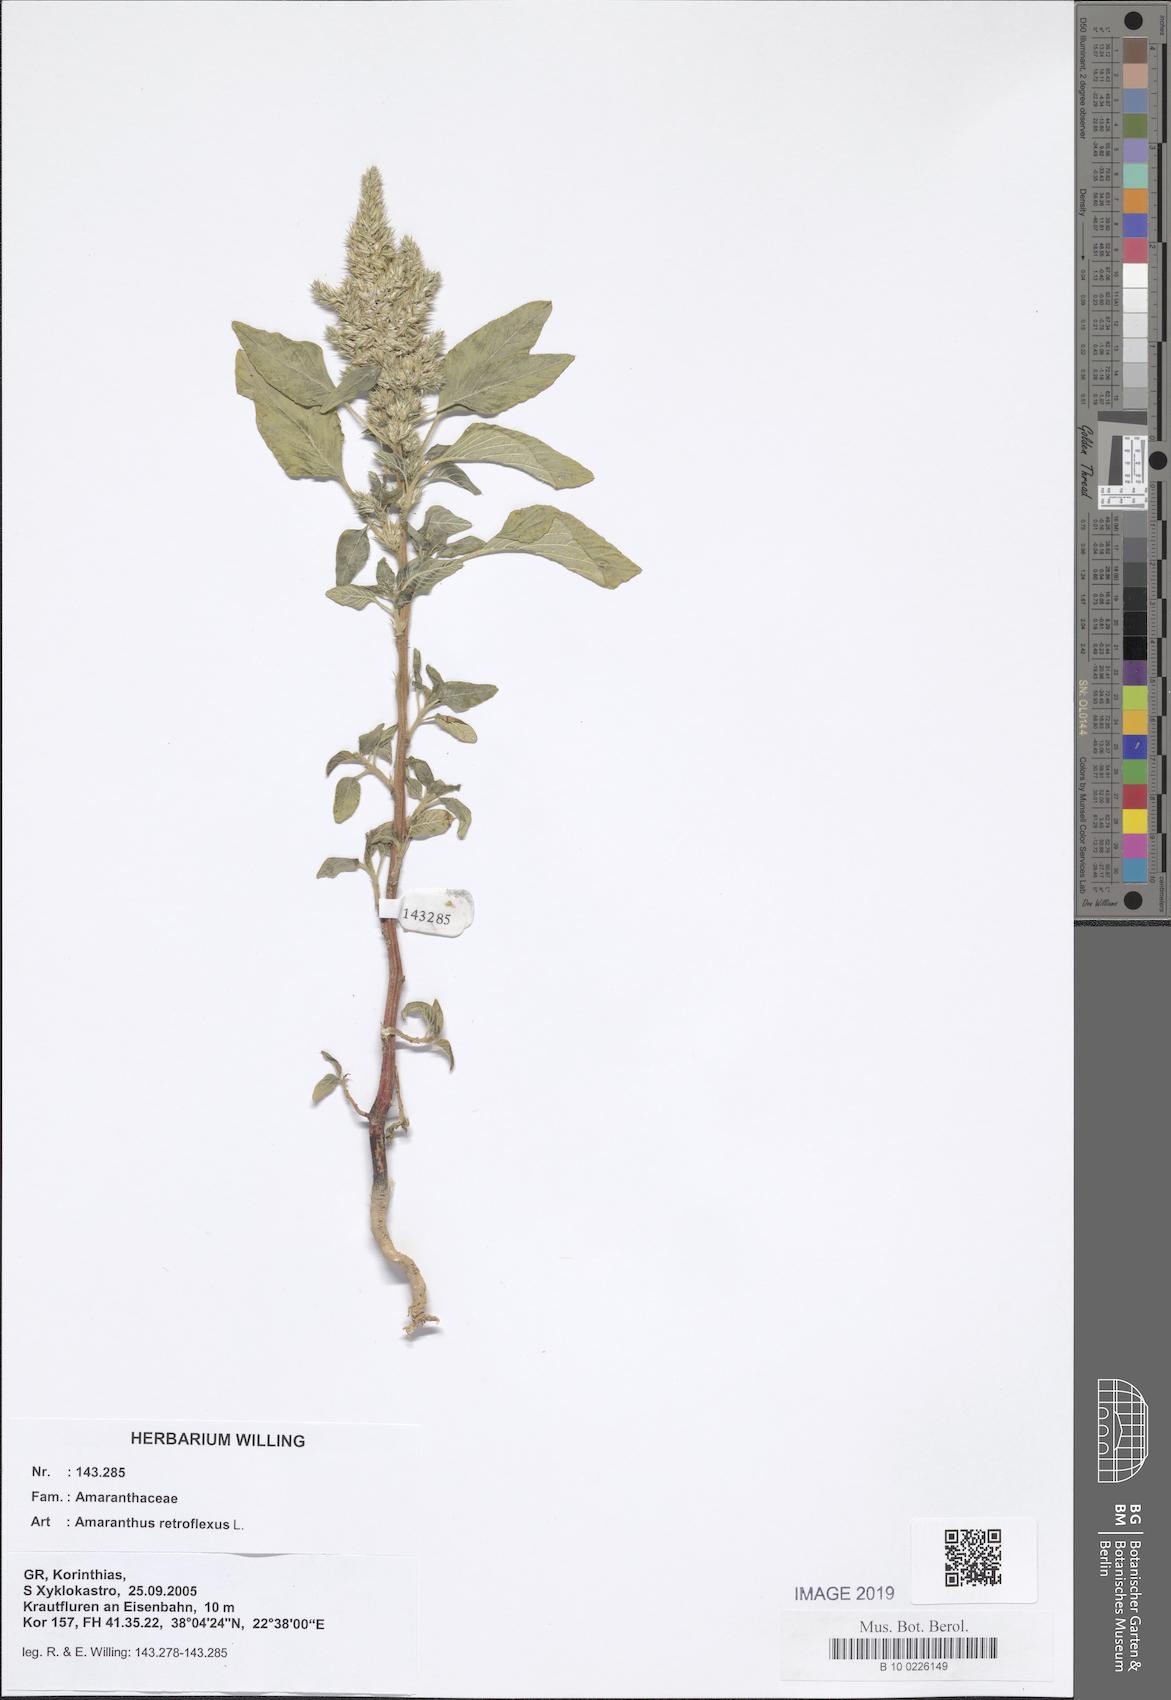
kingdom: Plantae
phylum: Tracheophyta
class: Magnoliopsida
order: Caryophyllales
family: Amaranthaceae
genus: Amaranthus
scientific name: Amaranthus retroflexus
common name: Redroot amaranth
